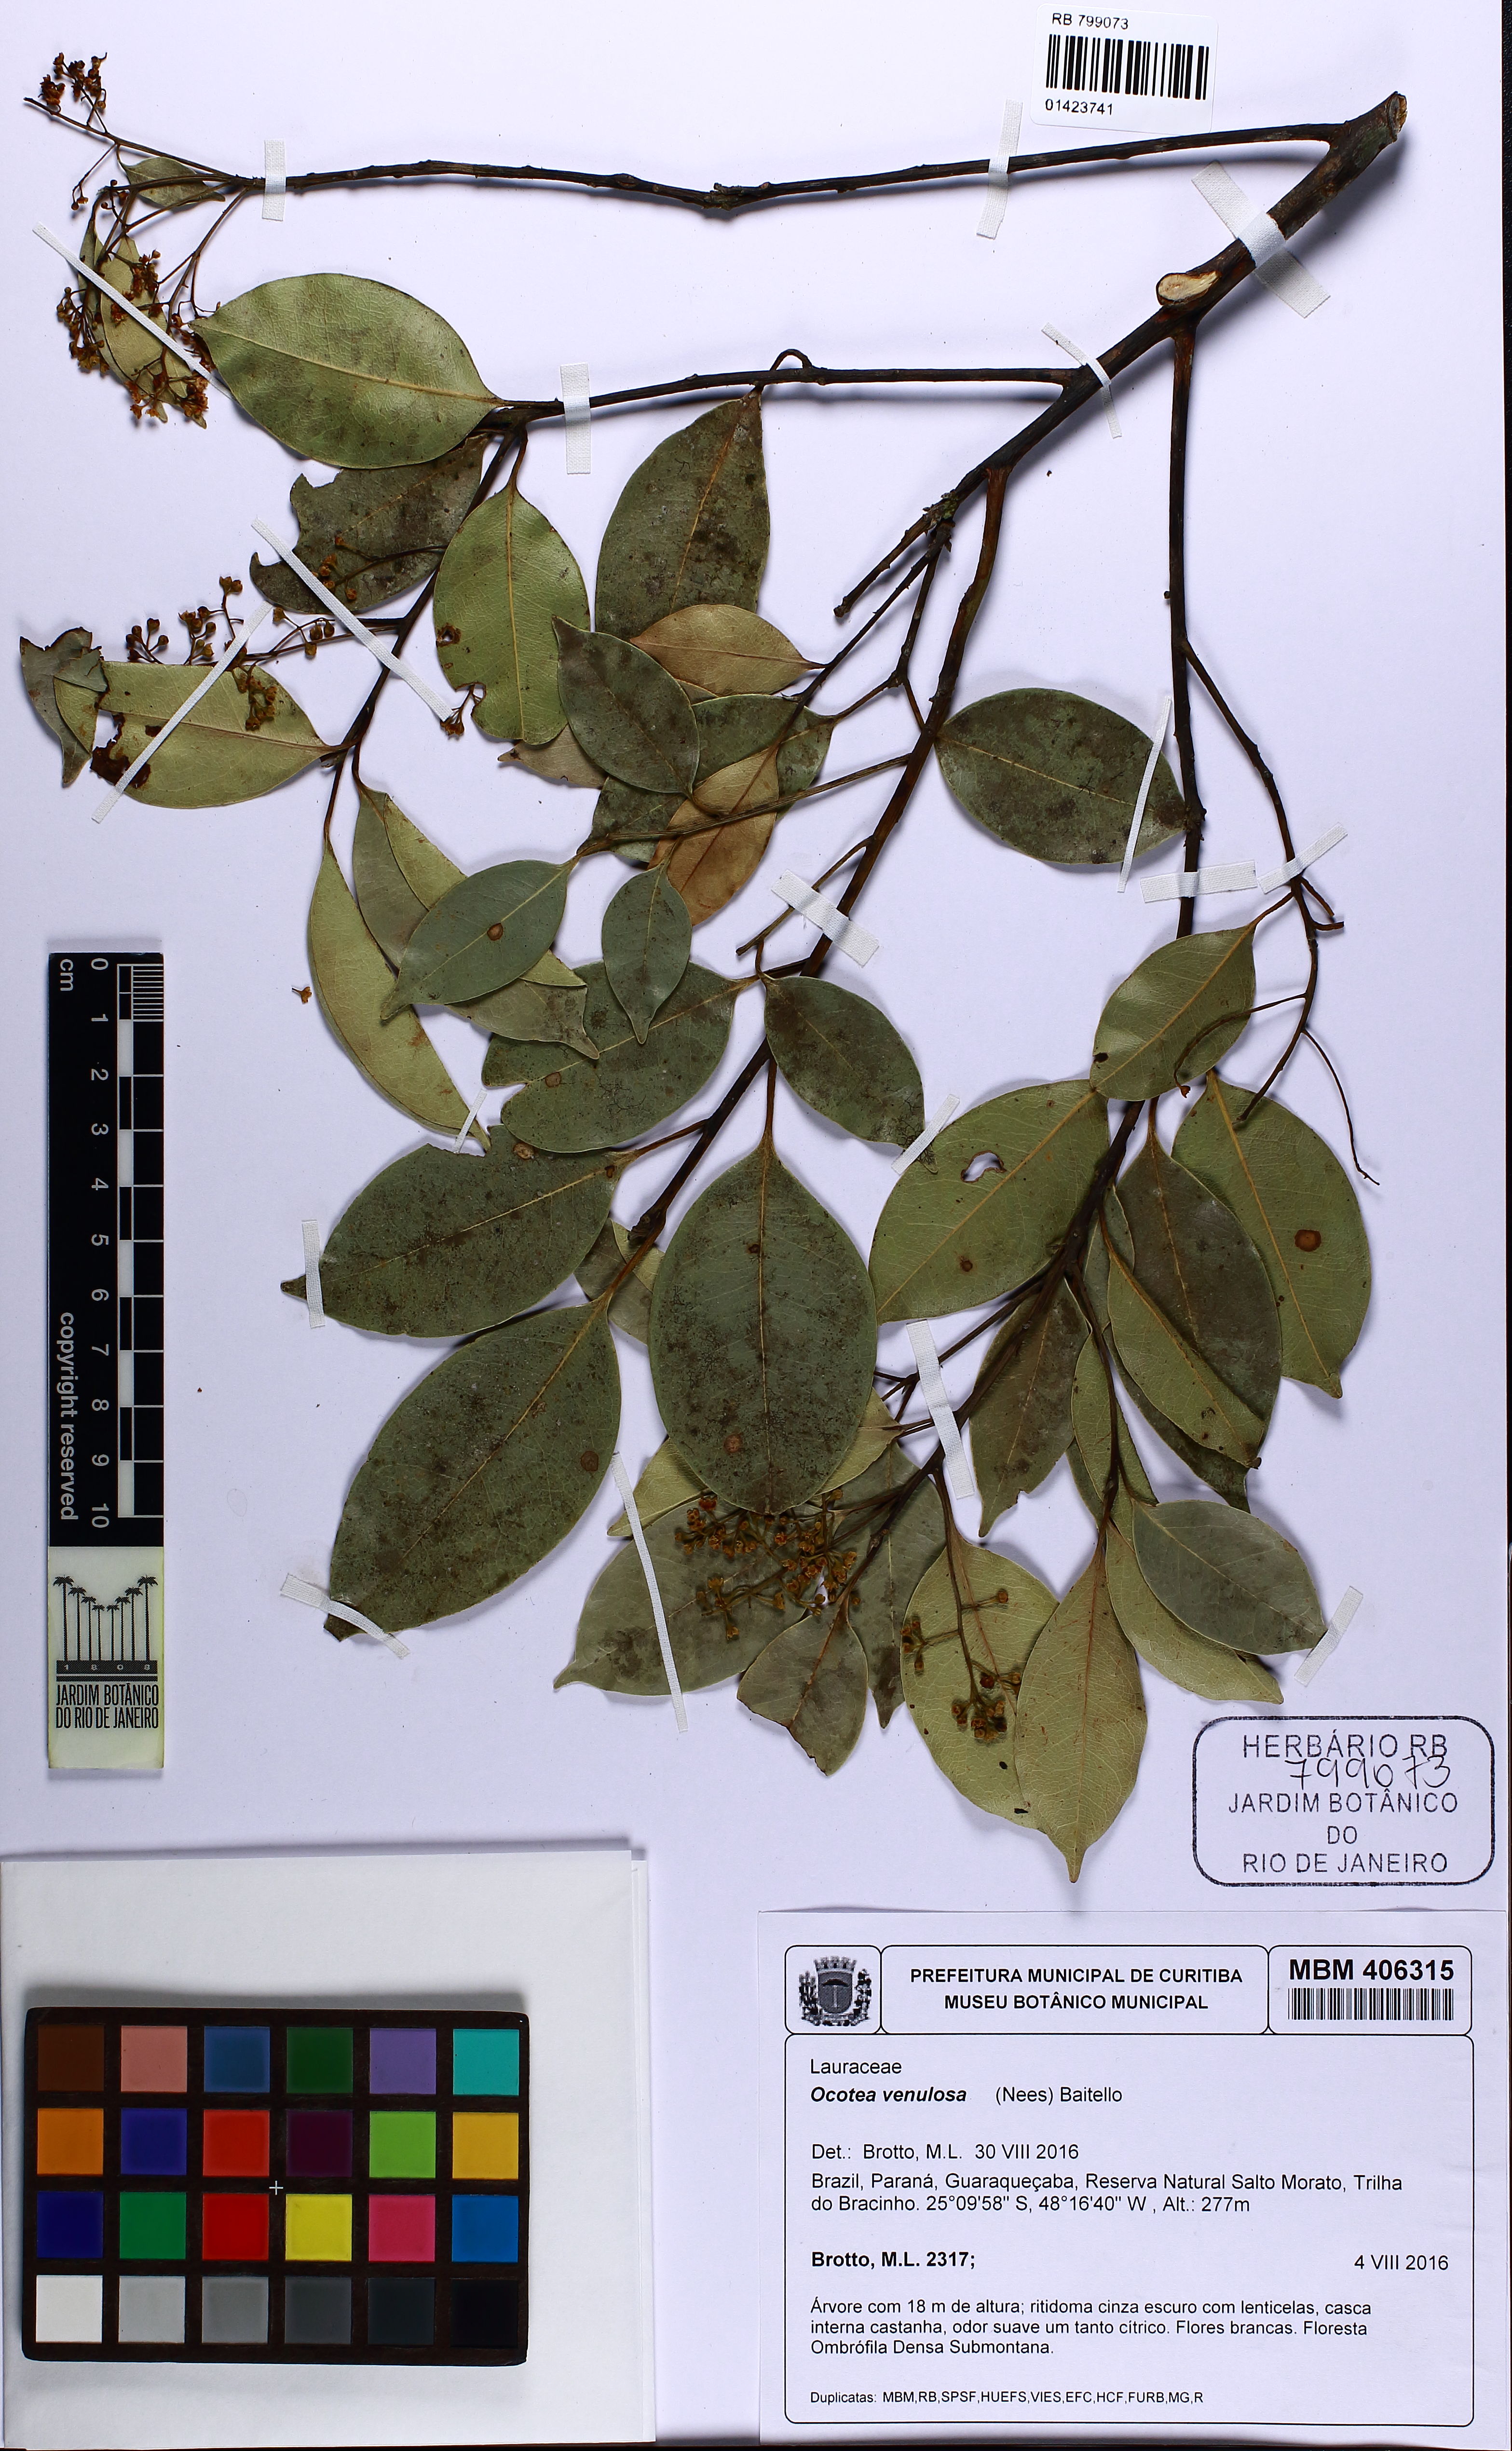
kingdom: Plantae
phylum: Tracheophyta
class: Magnoliopsida
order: Laurales
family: Lauraceae
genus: Ocotea
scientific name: Ocotea laxa
